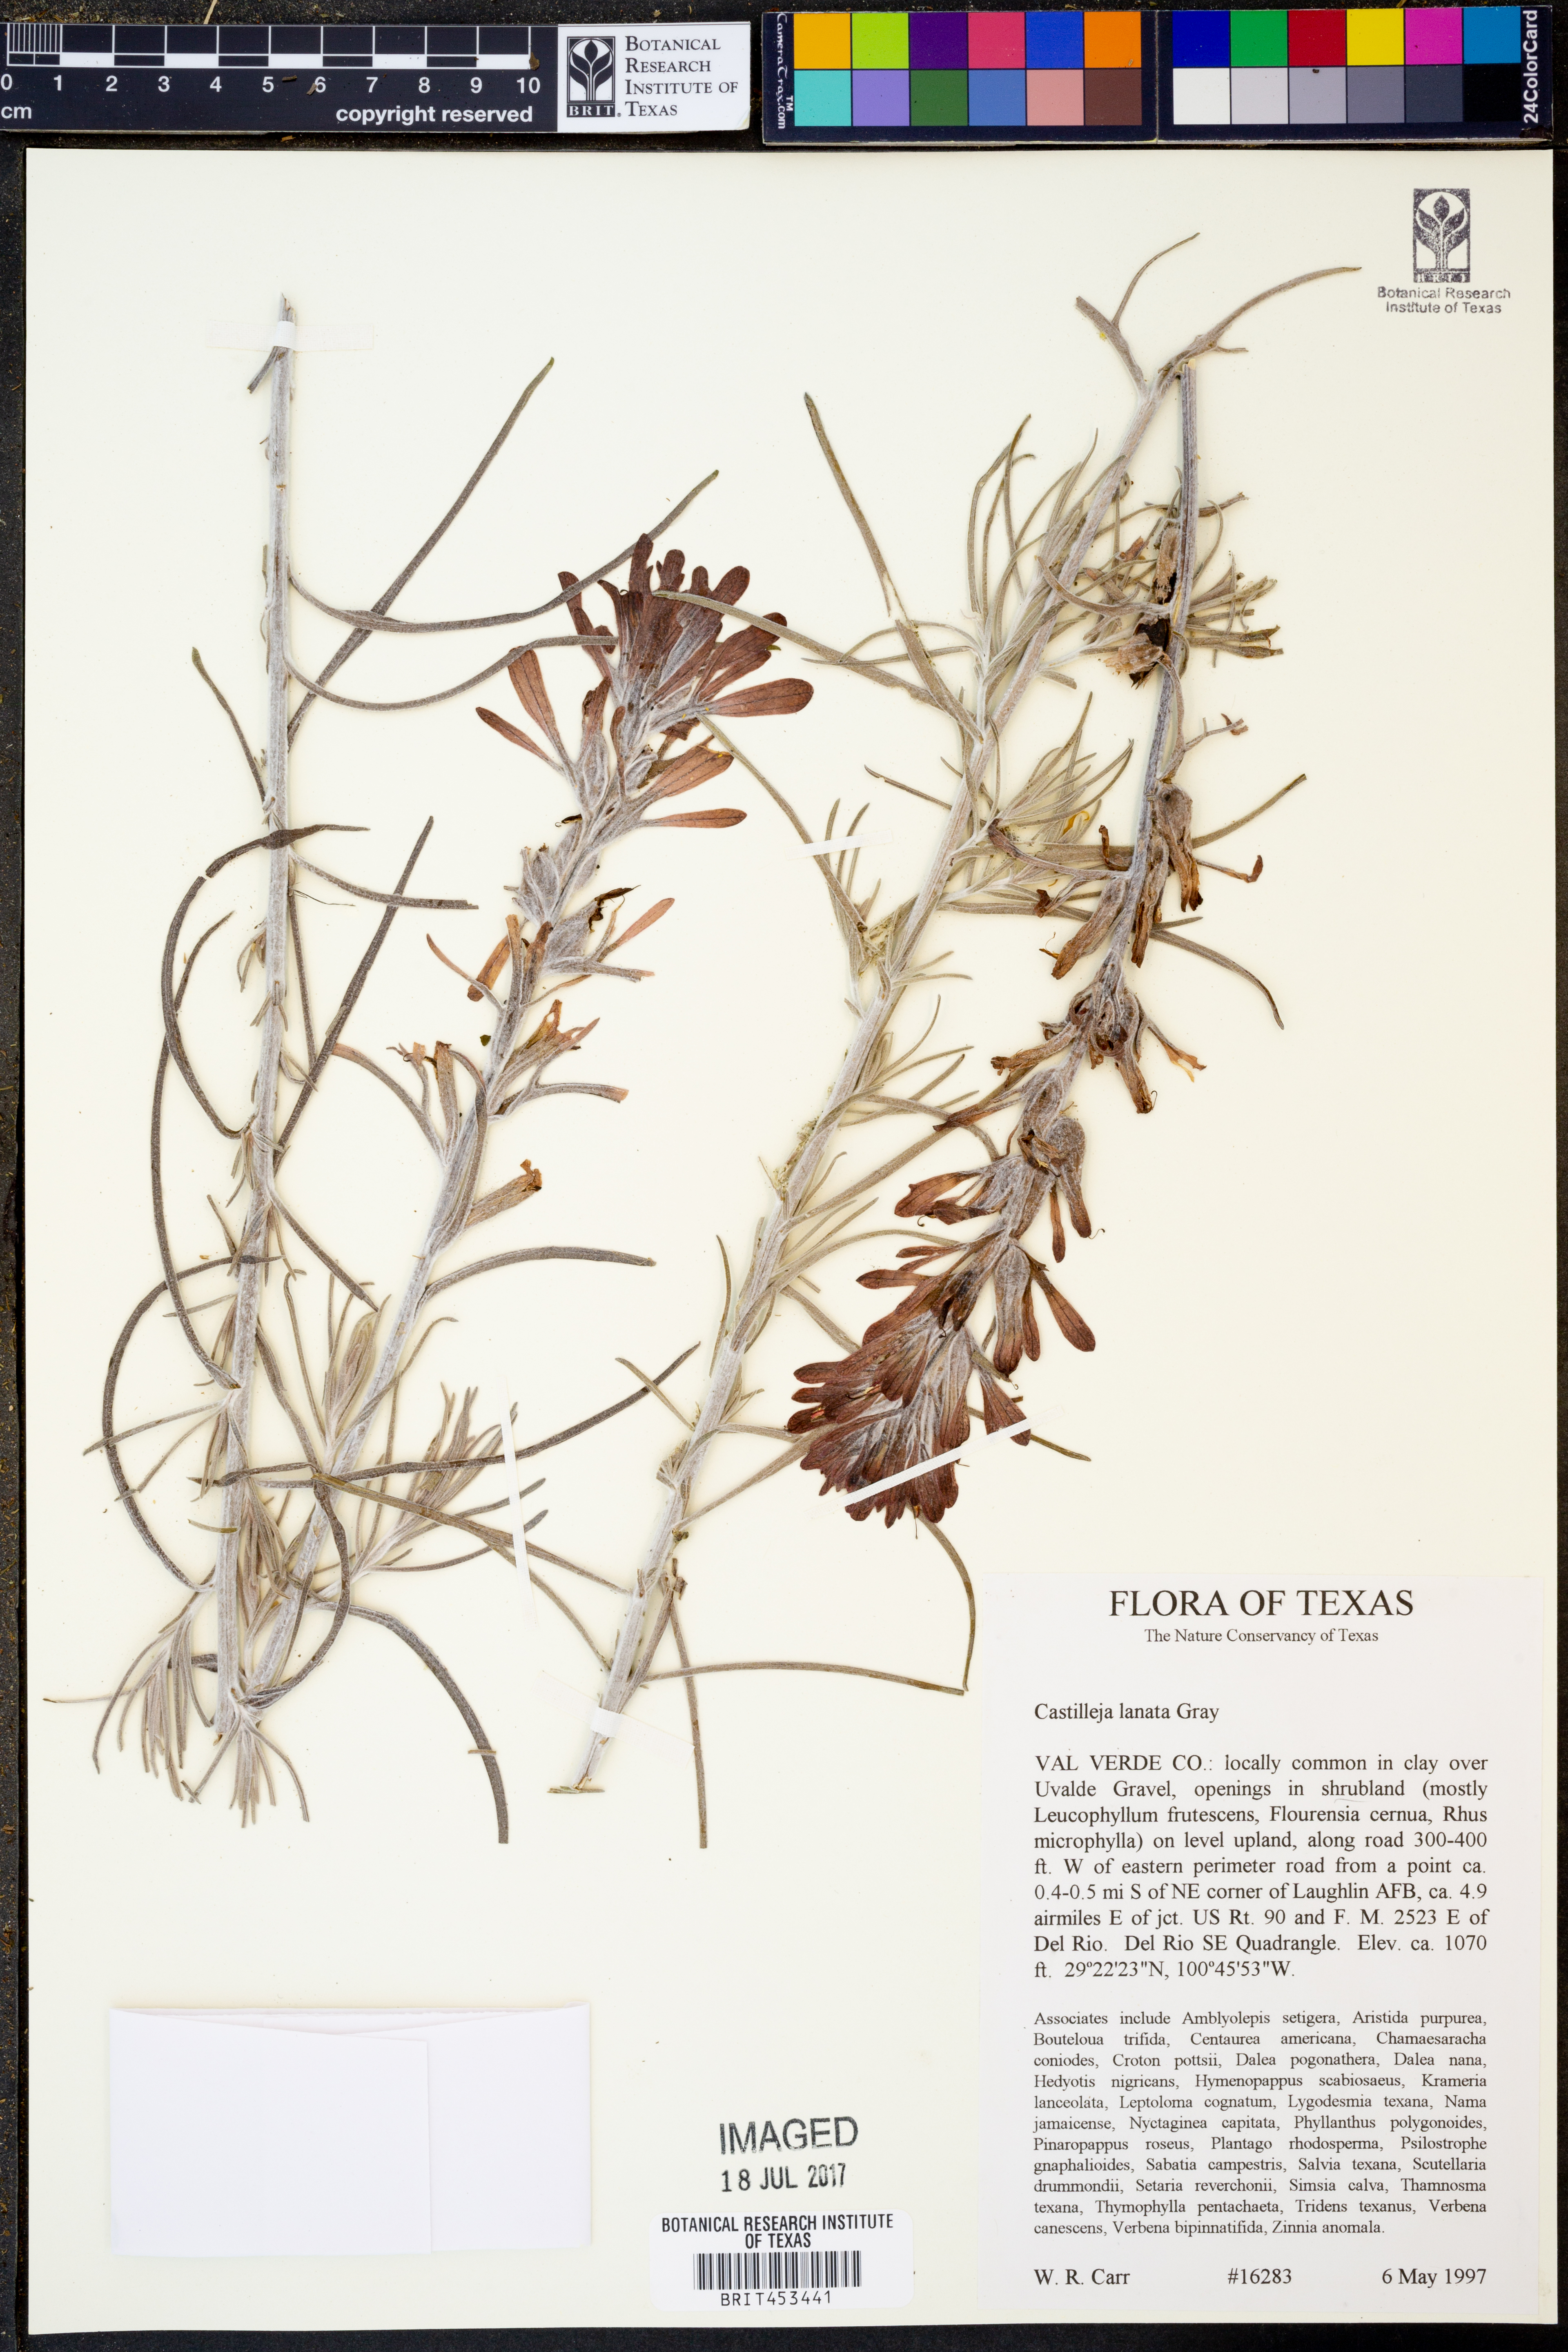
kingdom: Plantae
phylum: Tracheophyta
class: Magnoliopsida
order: Lamiales
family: Orobanchaceae
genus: Castilleja
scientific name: Castilleja lanata
